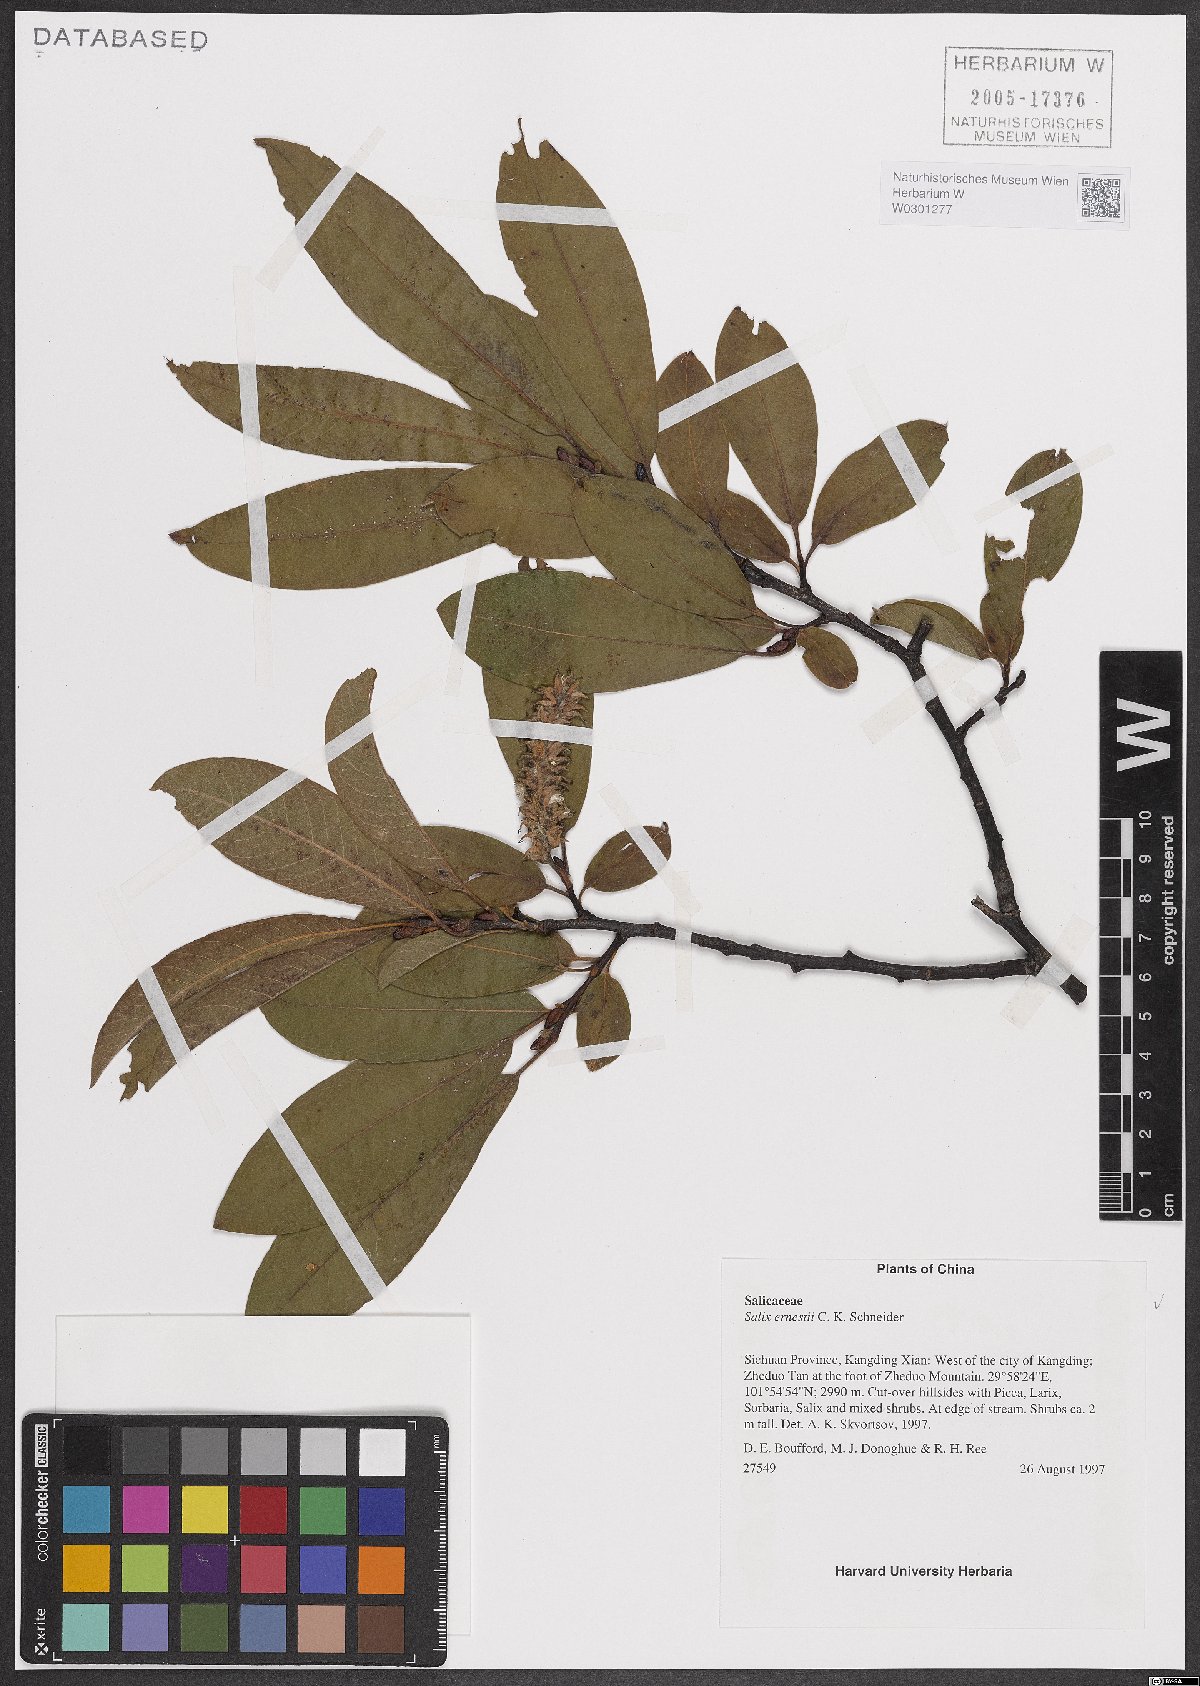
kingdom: Plantae
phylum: Tracheophyta
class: Magnoliopsida
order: Malpighiales
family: Salicaceae
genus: Salix
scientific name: Salix ernestii
